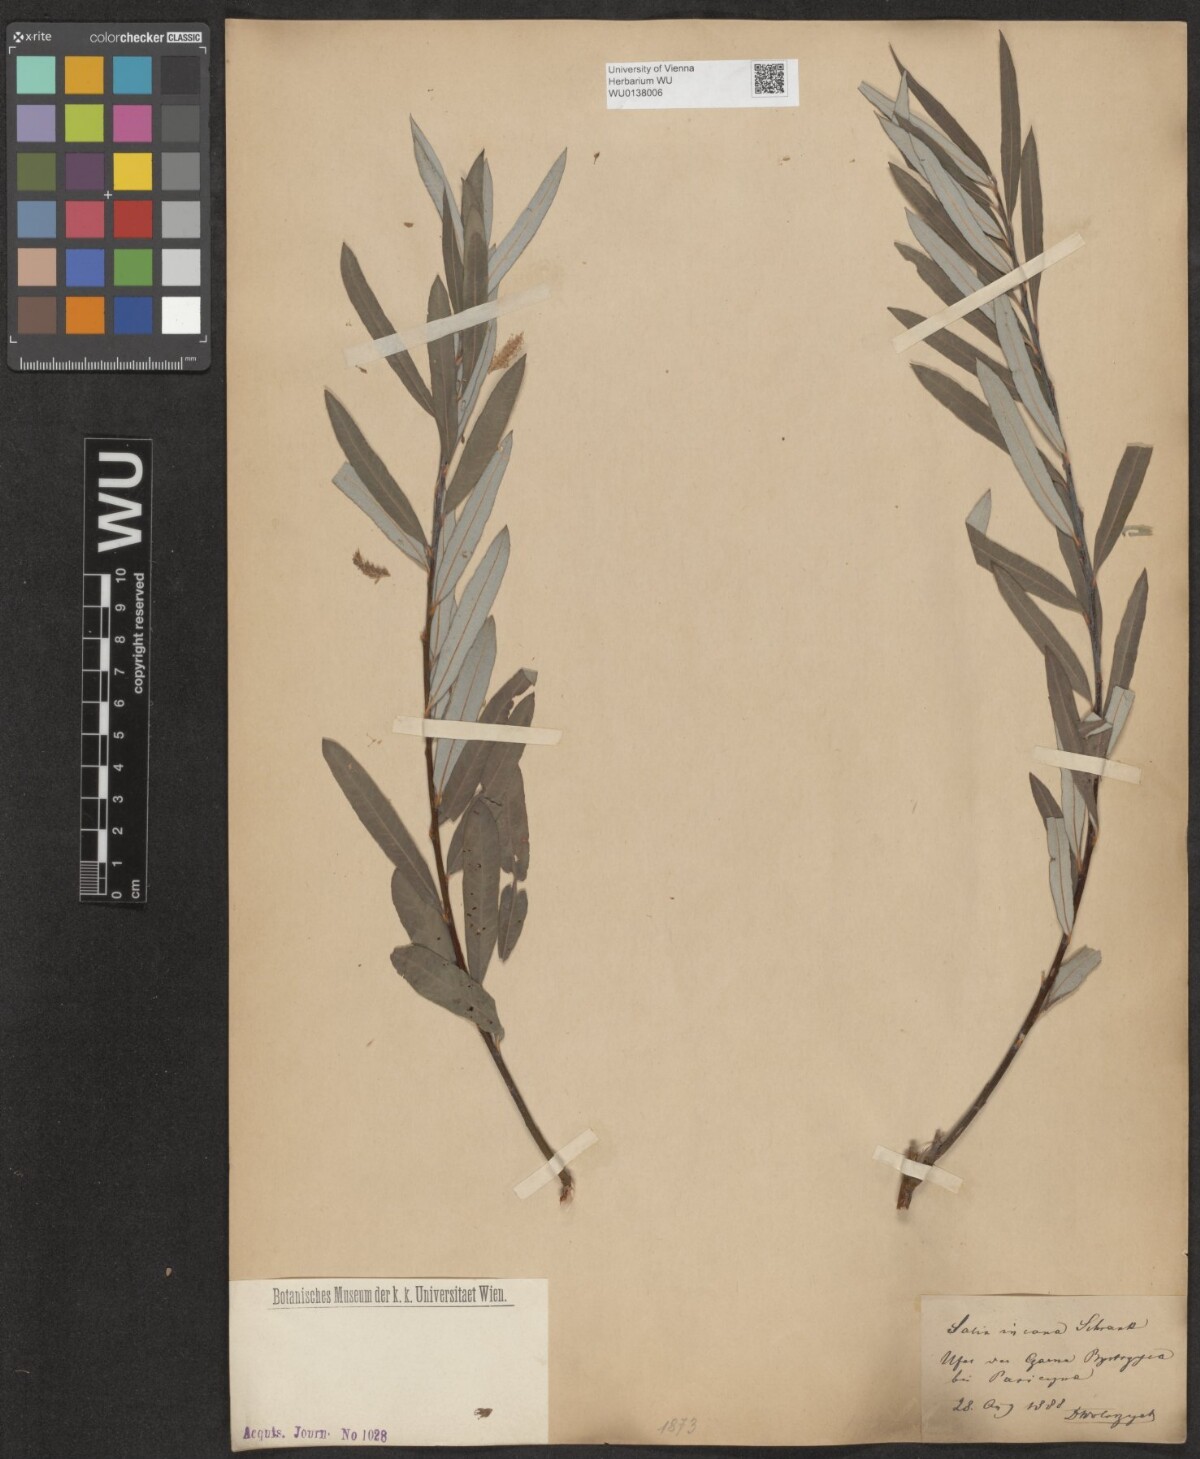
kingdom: Plantae
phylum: Tracheophyta
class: Magnoliopsida
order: Malpighiales
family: Salicaceae
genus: Salix
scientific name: Salix eleagnos
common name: Elaeagnus willow
